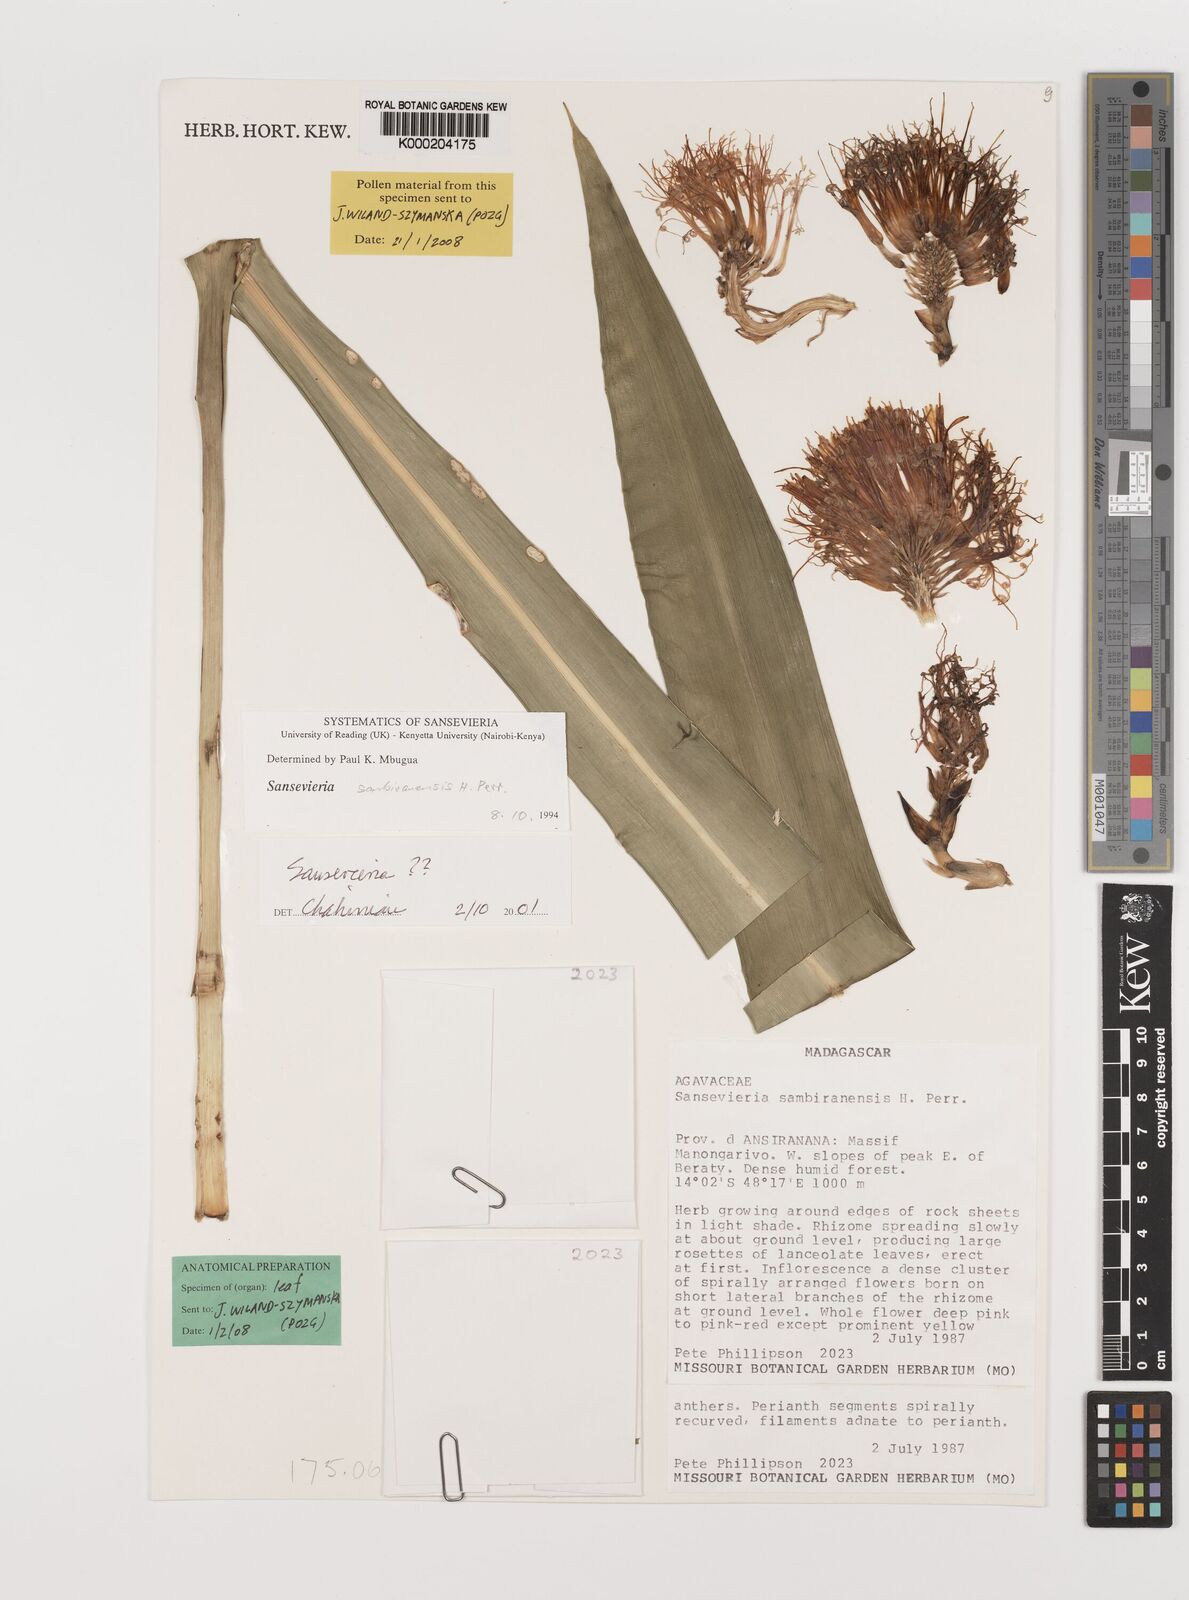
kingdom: Plantae
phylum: Tracheophyta
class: Liliopsida
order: Asparagales
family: Asparagaceae
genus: Dracaena
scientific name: Dracaena sambiranensis
